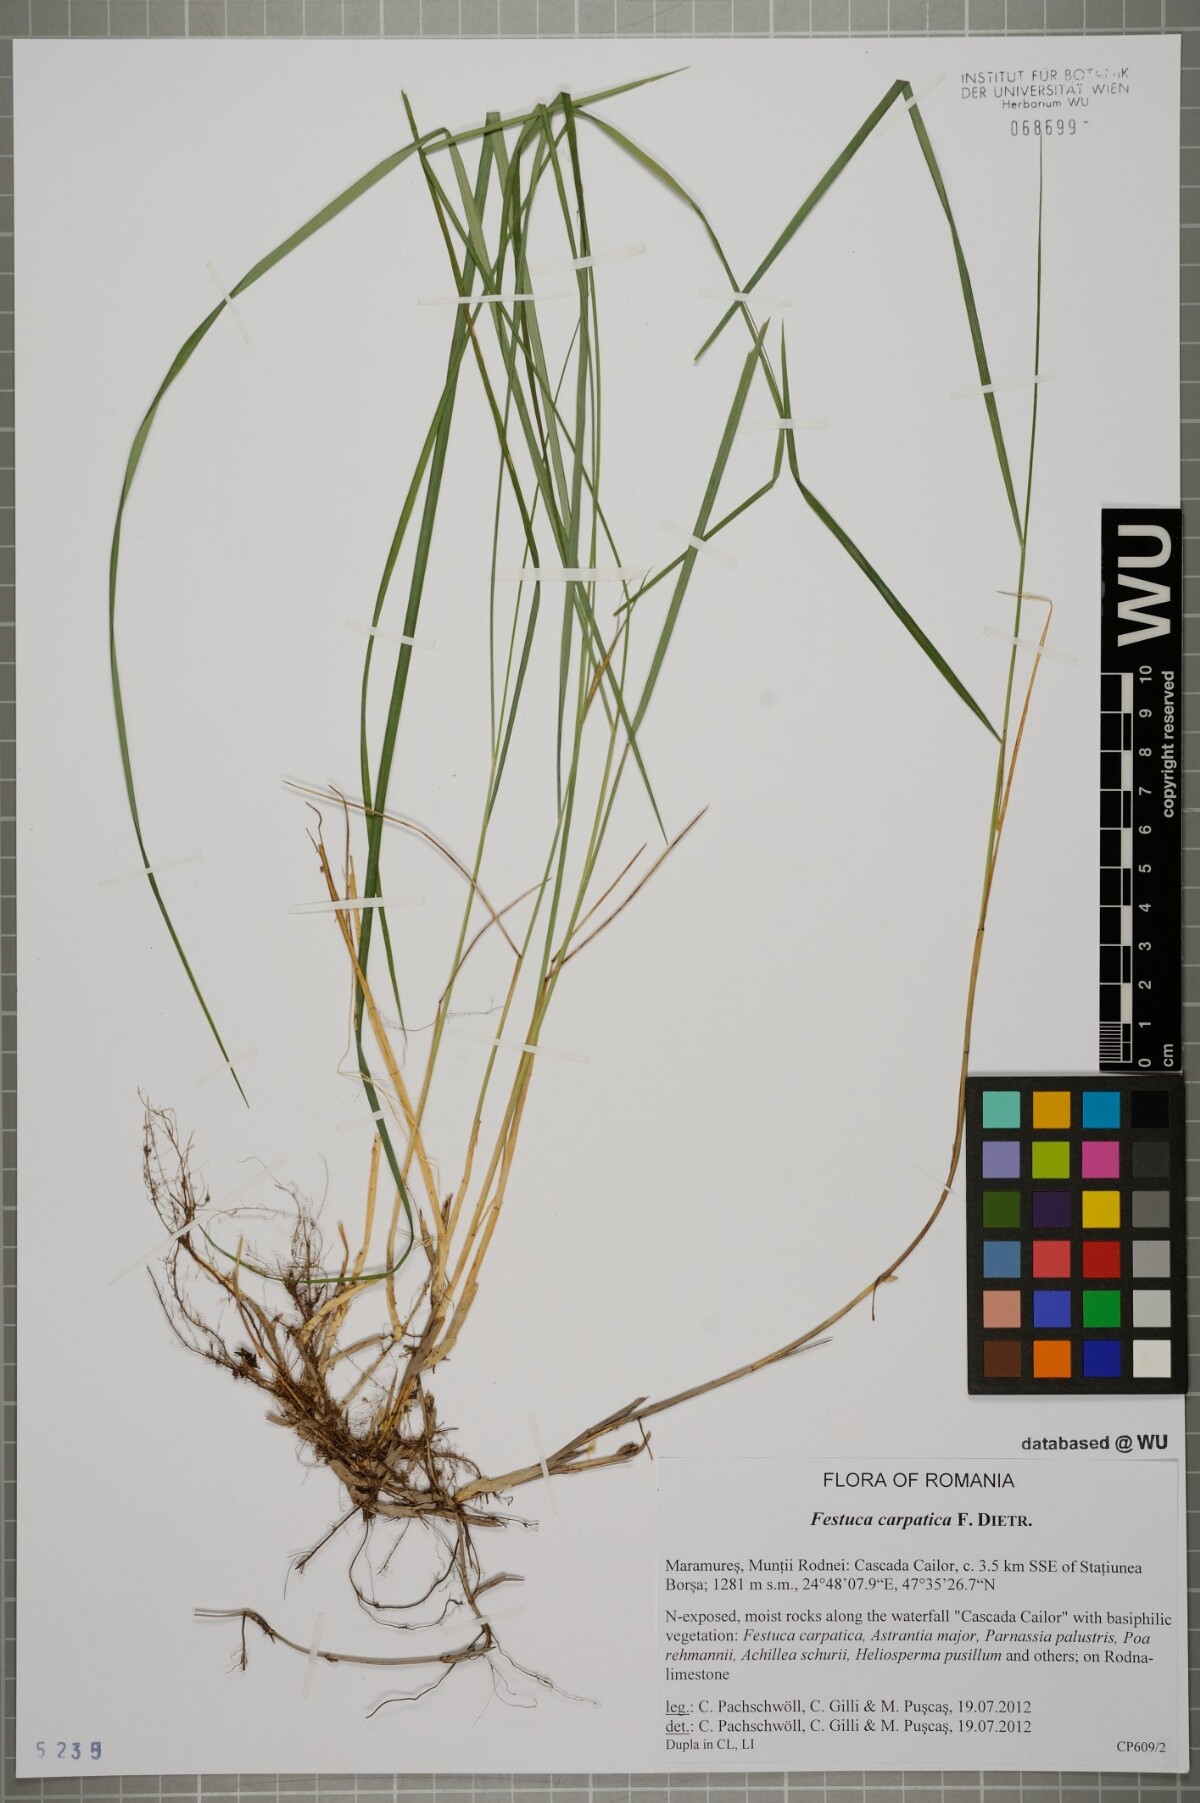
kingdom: Plantae
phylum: Tracheophyta
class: Liliopsida
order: Poales
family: Poaceae
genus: Festuca
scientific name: Festuca carpatica
